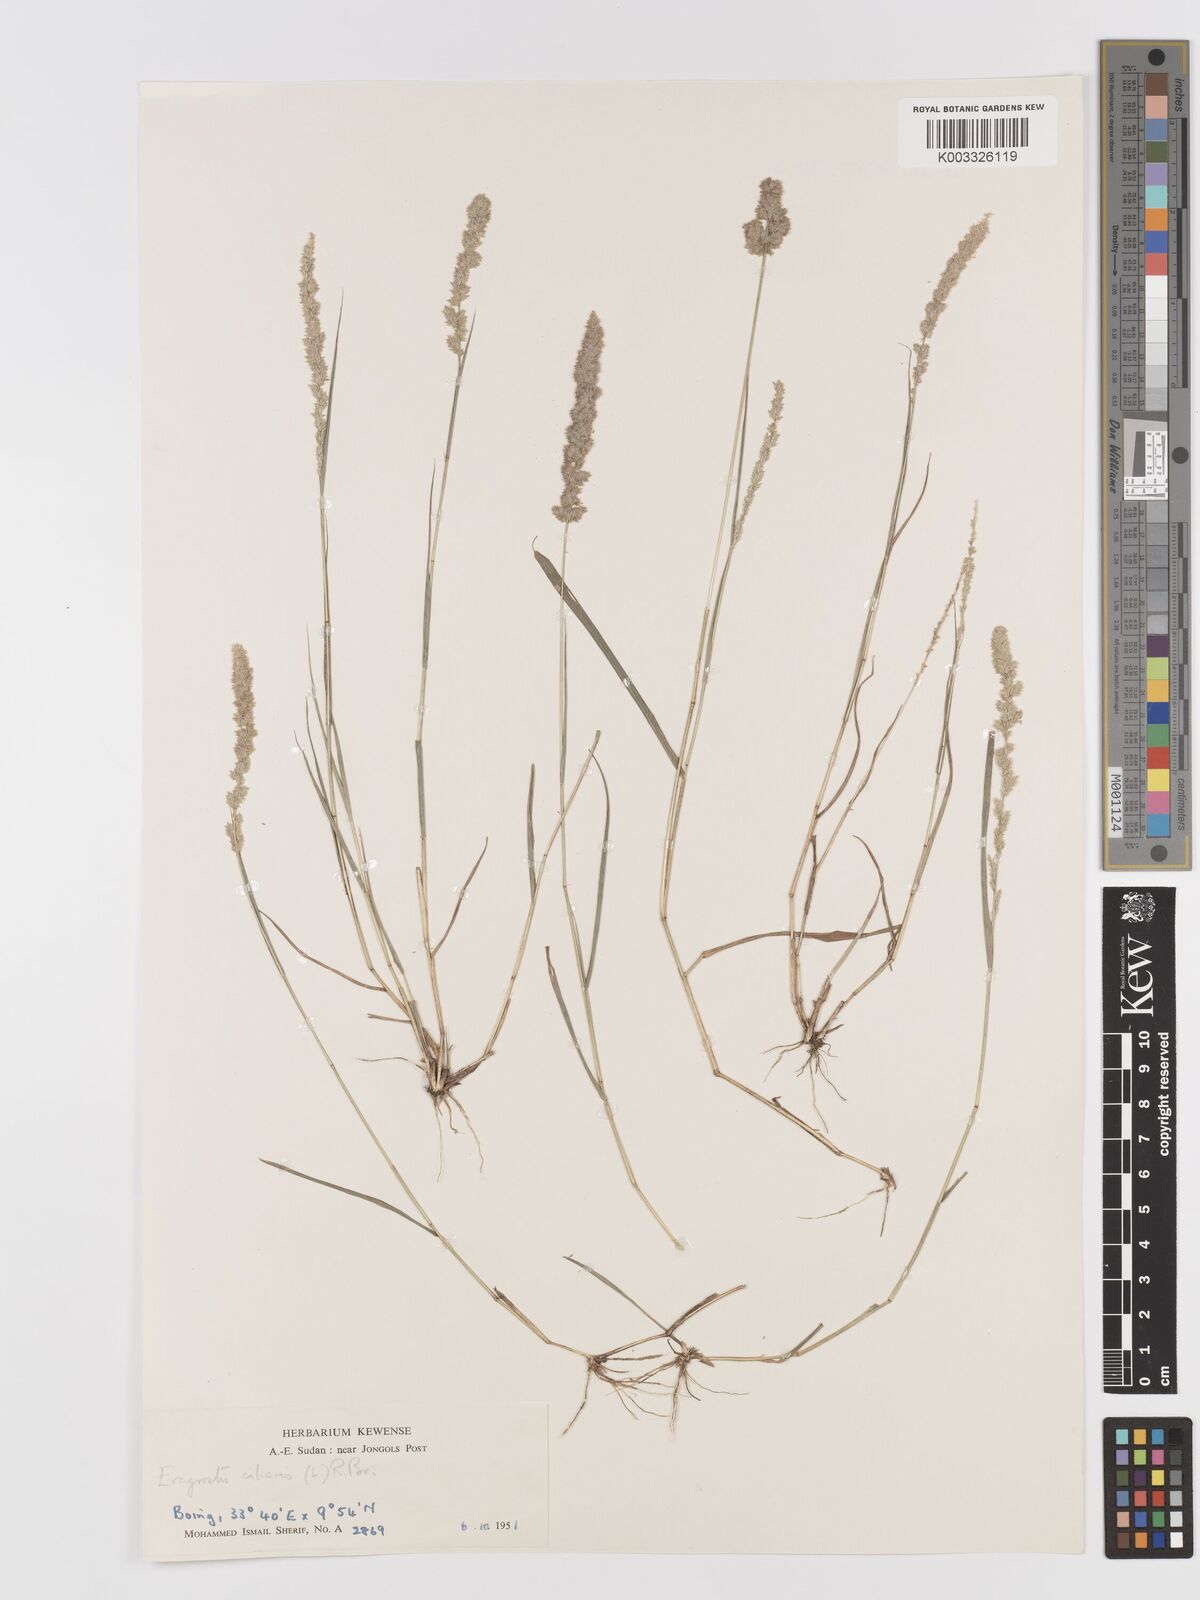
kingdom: Plantae
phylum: Tracheophyta
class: Liliopsida
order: Poales
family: Poaceae
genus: Eragrostis
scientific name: Eragrostis ciliaris
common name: Gophertail lovegrass
